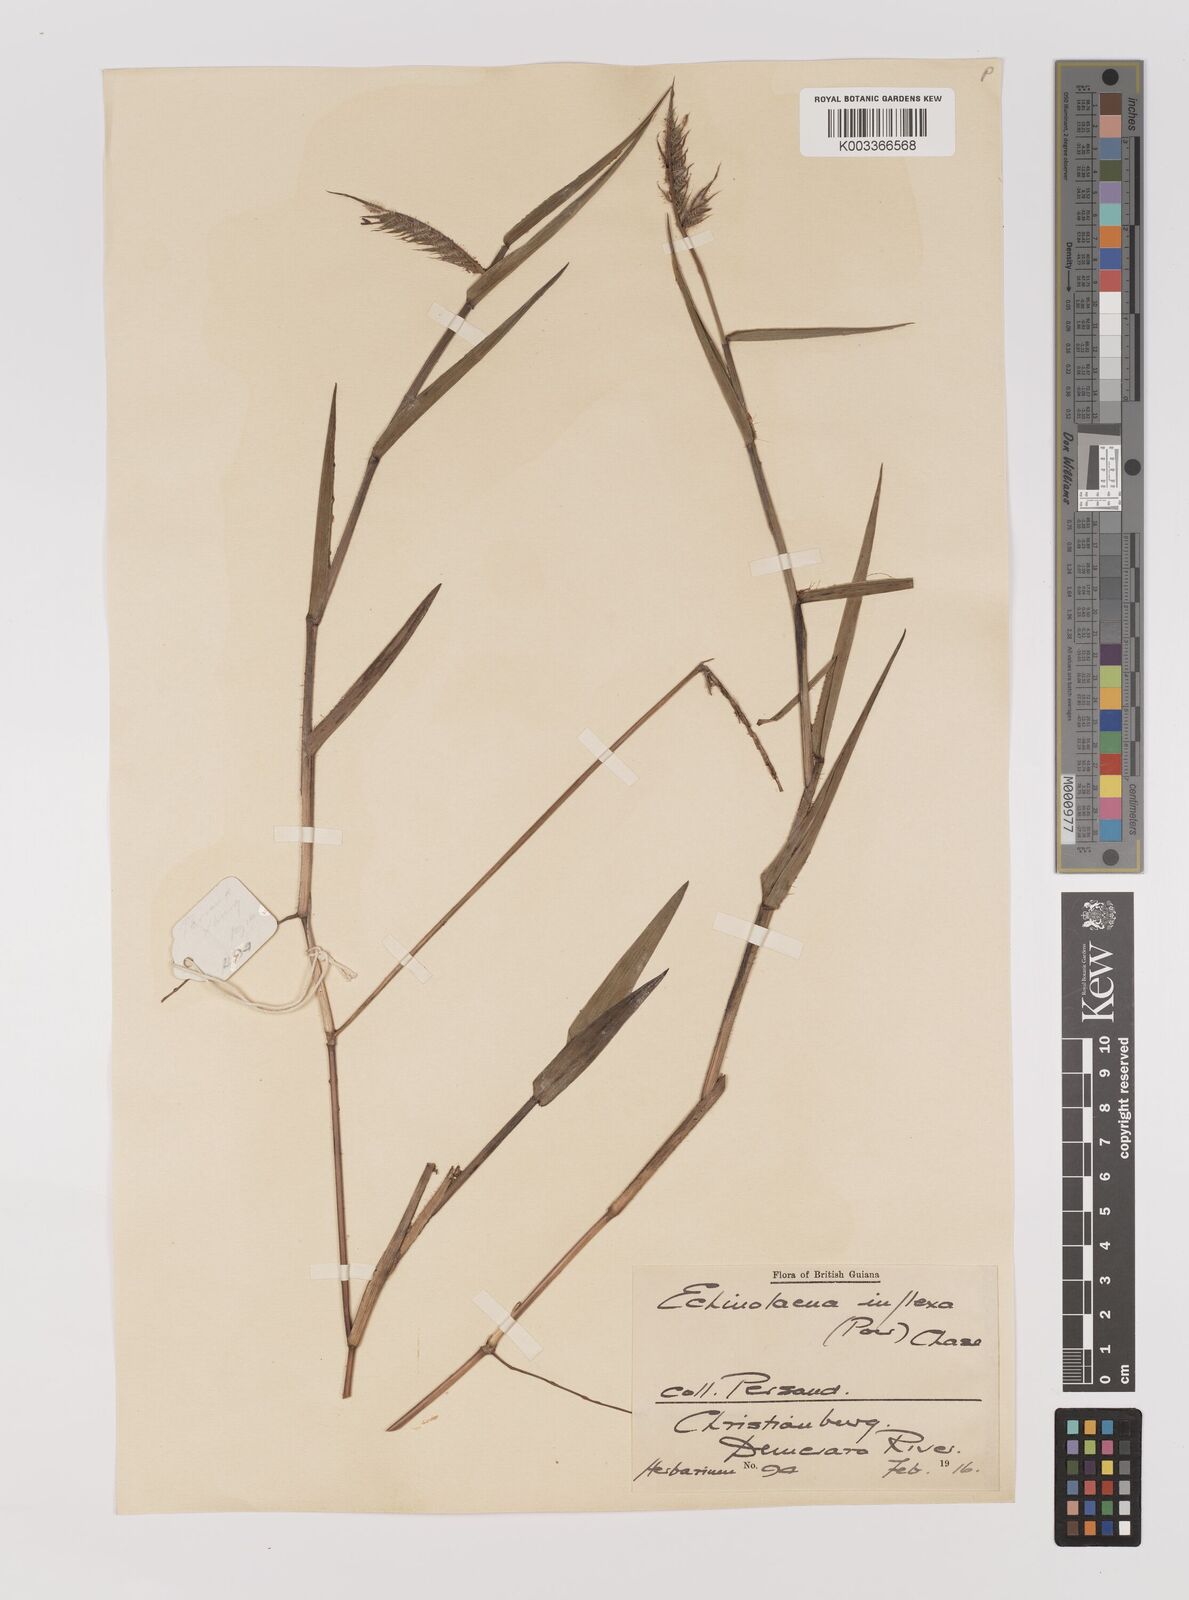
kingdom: Plantae
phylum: Tracheophyta
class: Liliopsida
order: Poales
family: Poaceae
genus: Echinolaena
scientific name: Echinolaena inflexa
